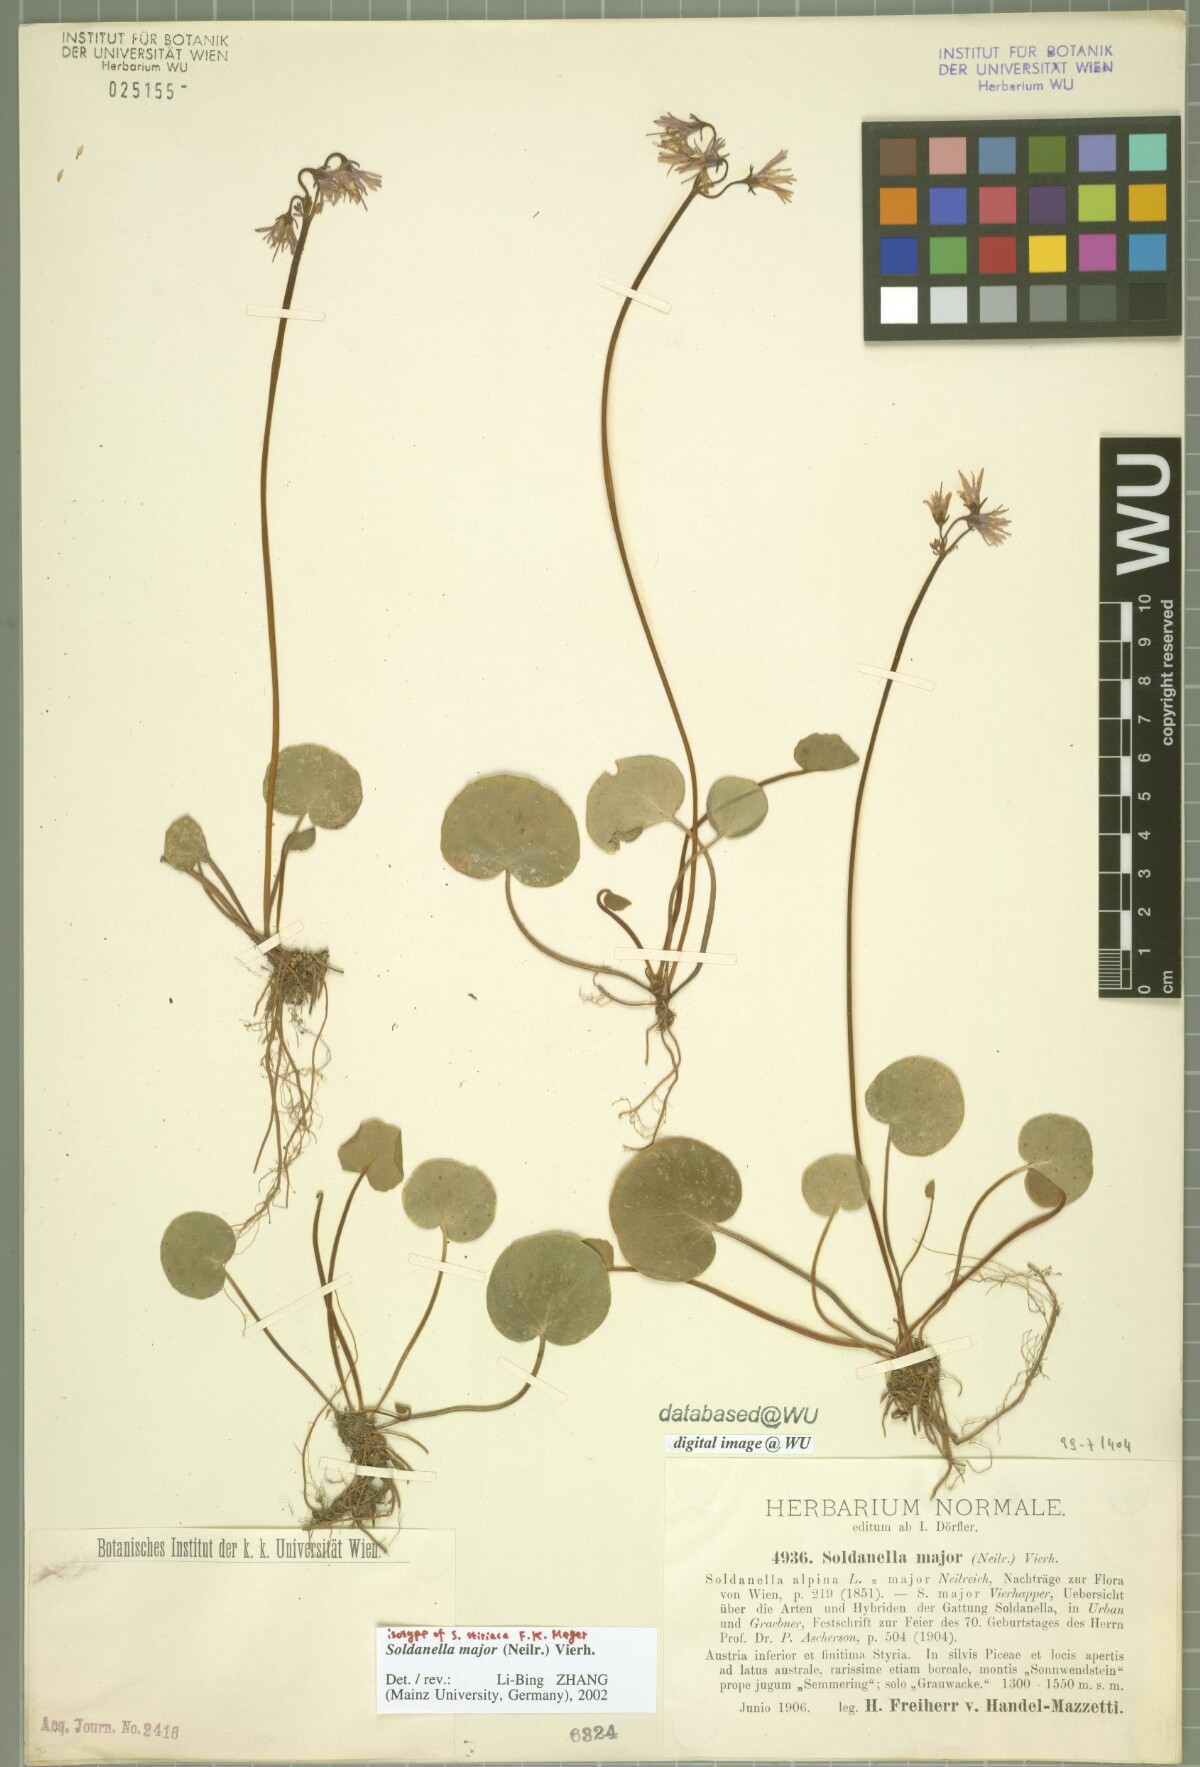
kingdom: Plantae
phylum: Tracheophyta
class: Magnoliopsida
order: Ericales
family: Primulaceae
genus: Soldanella
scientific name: Soldanella major
